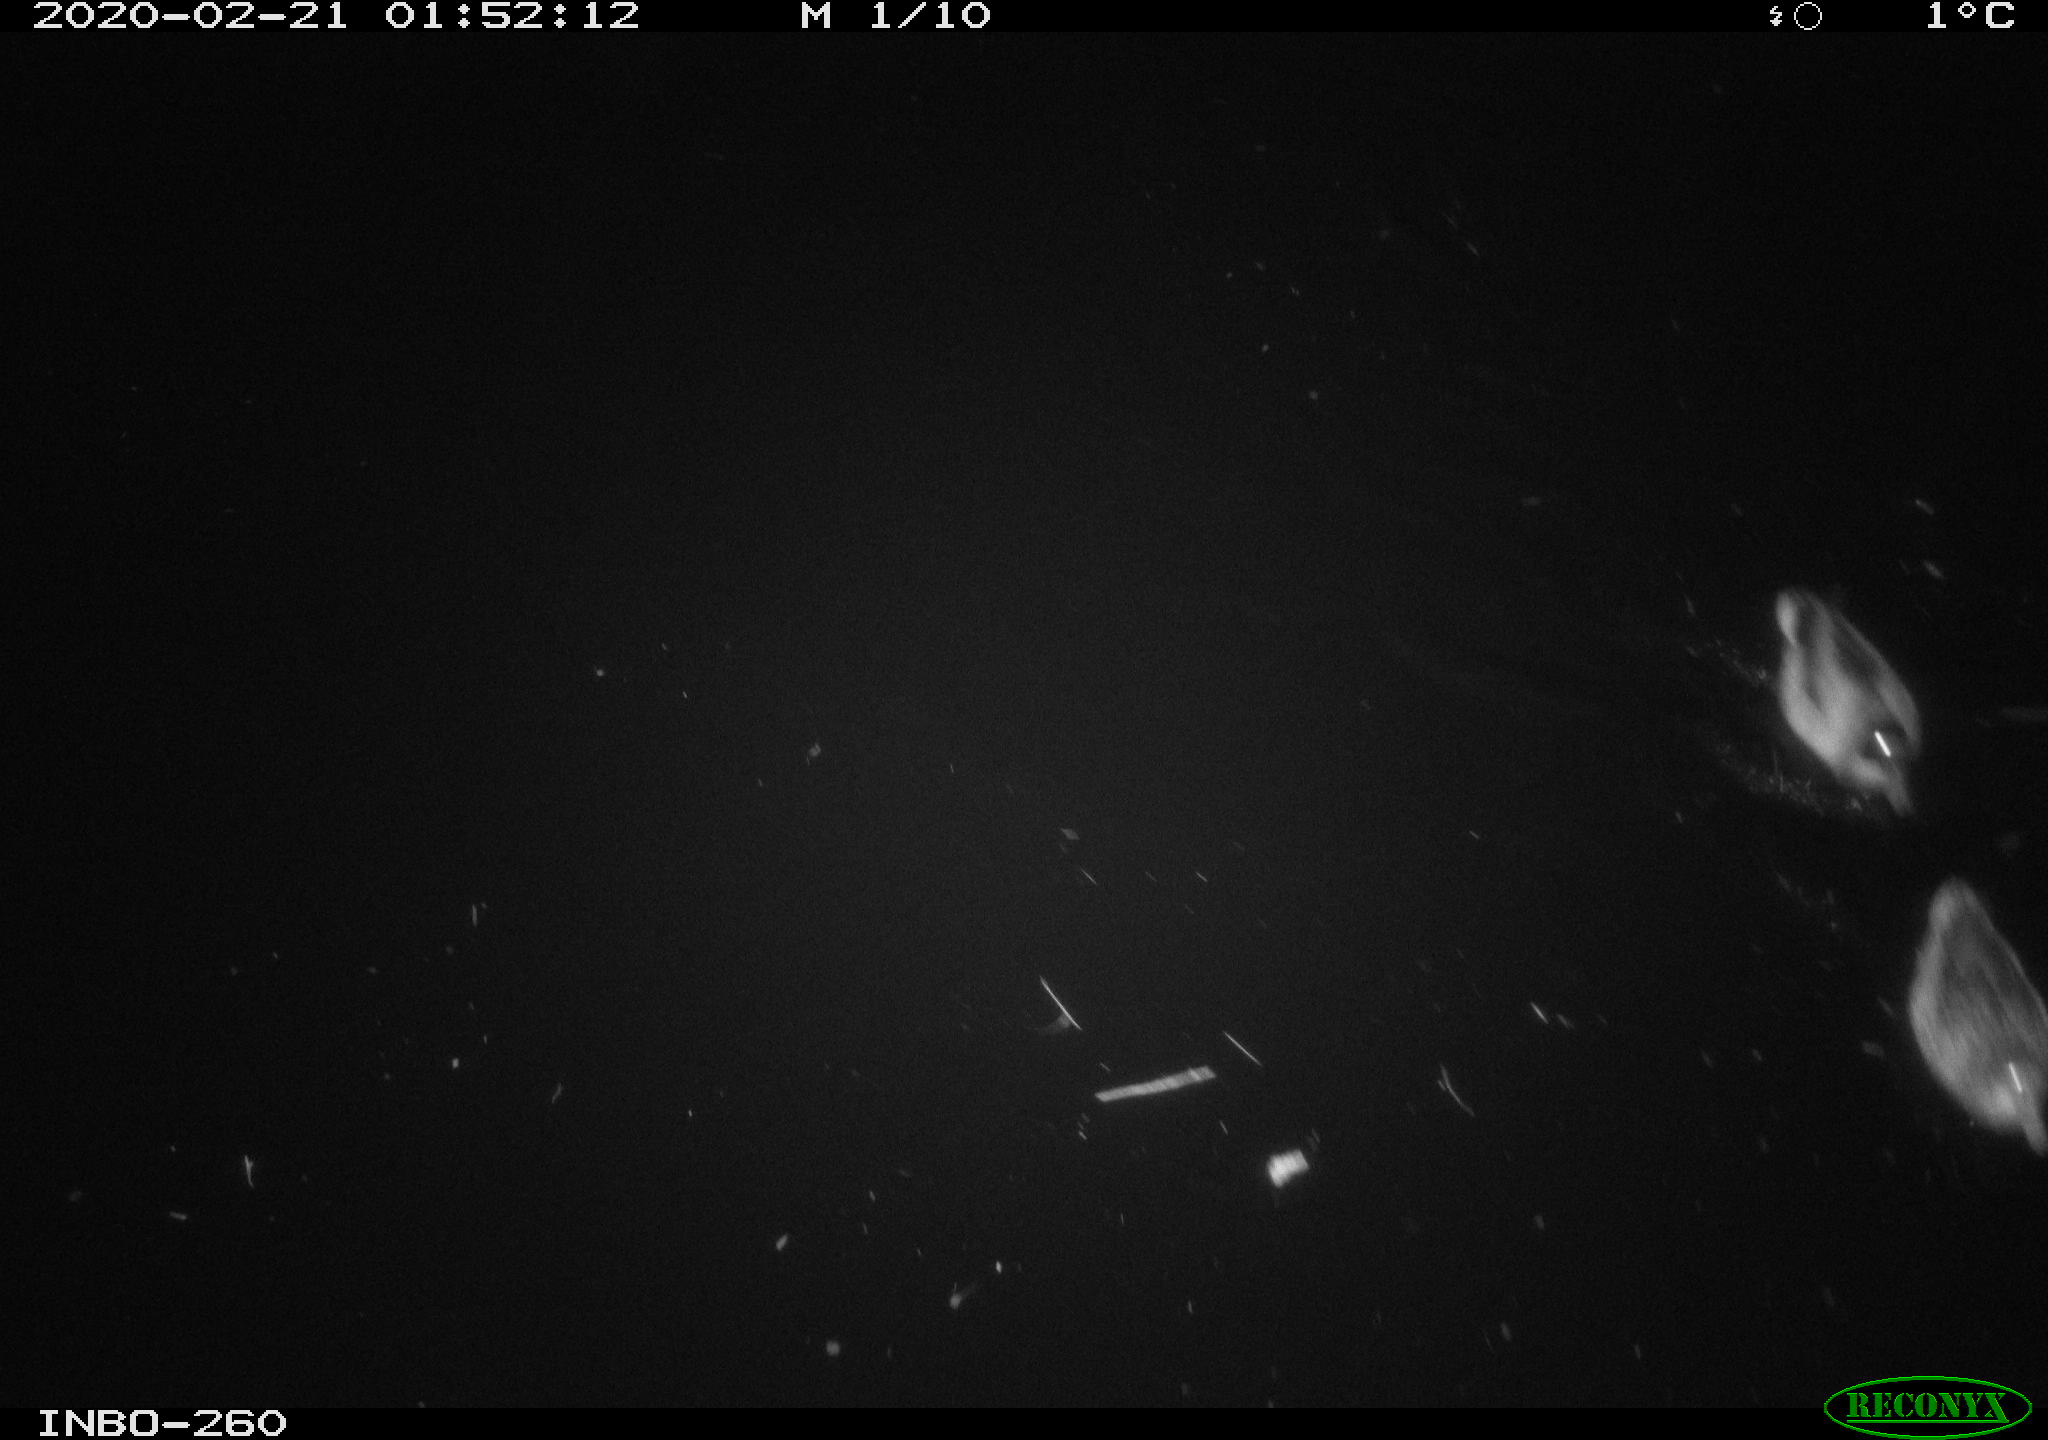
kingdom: Animalia
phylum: Chordata
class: Aves
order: Anseriformes
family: Anatidae
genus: Anas
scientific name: Anas platyrhynchos
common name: Mallard
